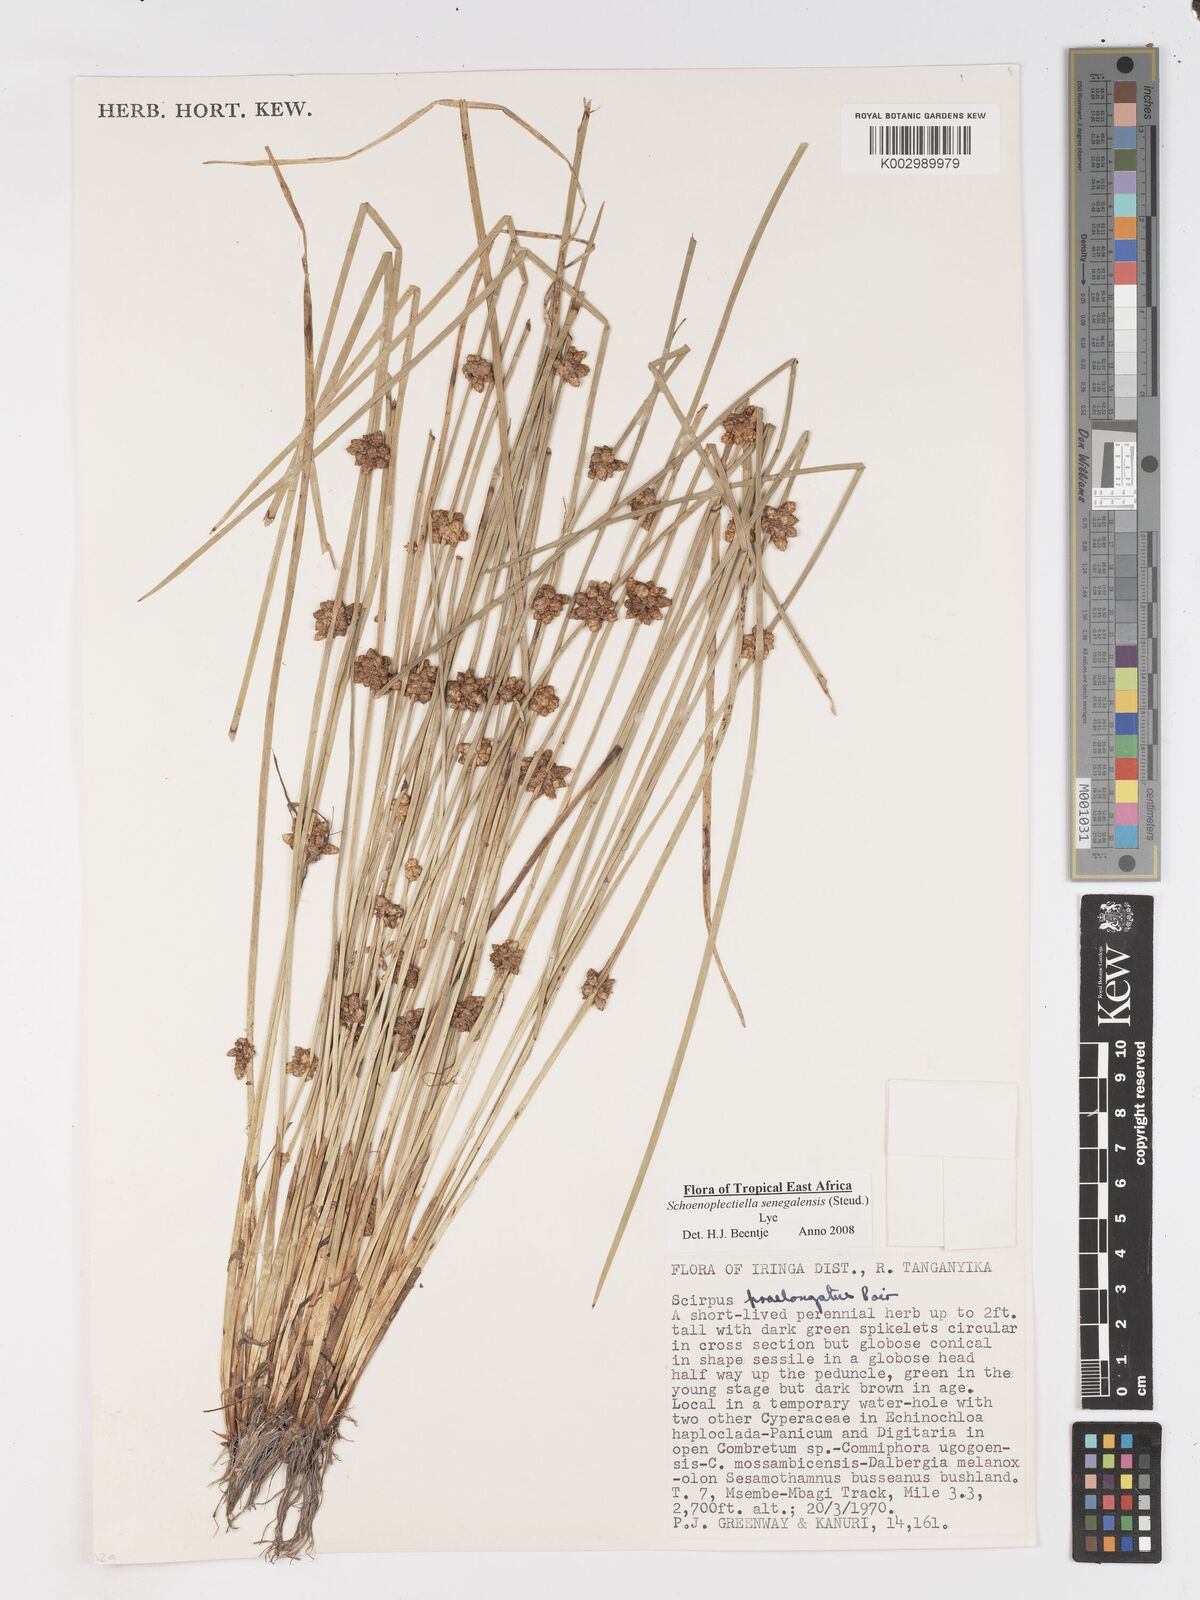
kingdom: Plantae
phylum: Tracheophyta
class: Liliopsida
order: Poales
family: Cyperaceae
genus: Schoenoplectiella
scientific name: Schoenoplectiella senegalensis
